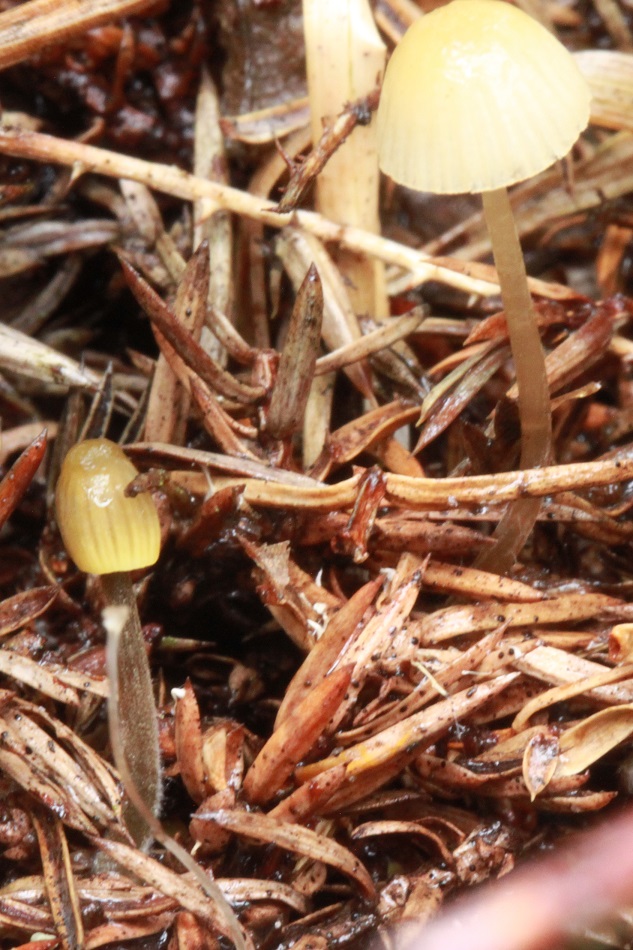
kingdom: Fungi
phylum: Basidiomycota
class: Agaricomycetes
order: Agaricales
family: Mycenaceae
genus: Mycena
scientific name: Mycena citrinomarginata
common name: gulægget huesvamp
